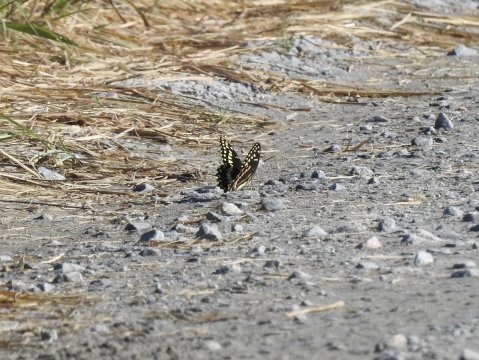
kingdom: Animalia
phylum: Arthropoda
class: Insecta
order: Lepidoptera
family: Papilionidae
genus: Pterourus
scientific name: Pterourus palamedes
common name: Palamedes Swallowtail
